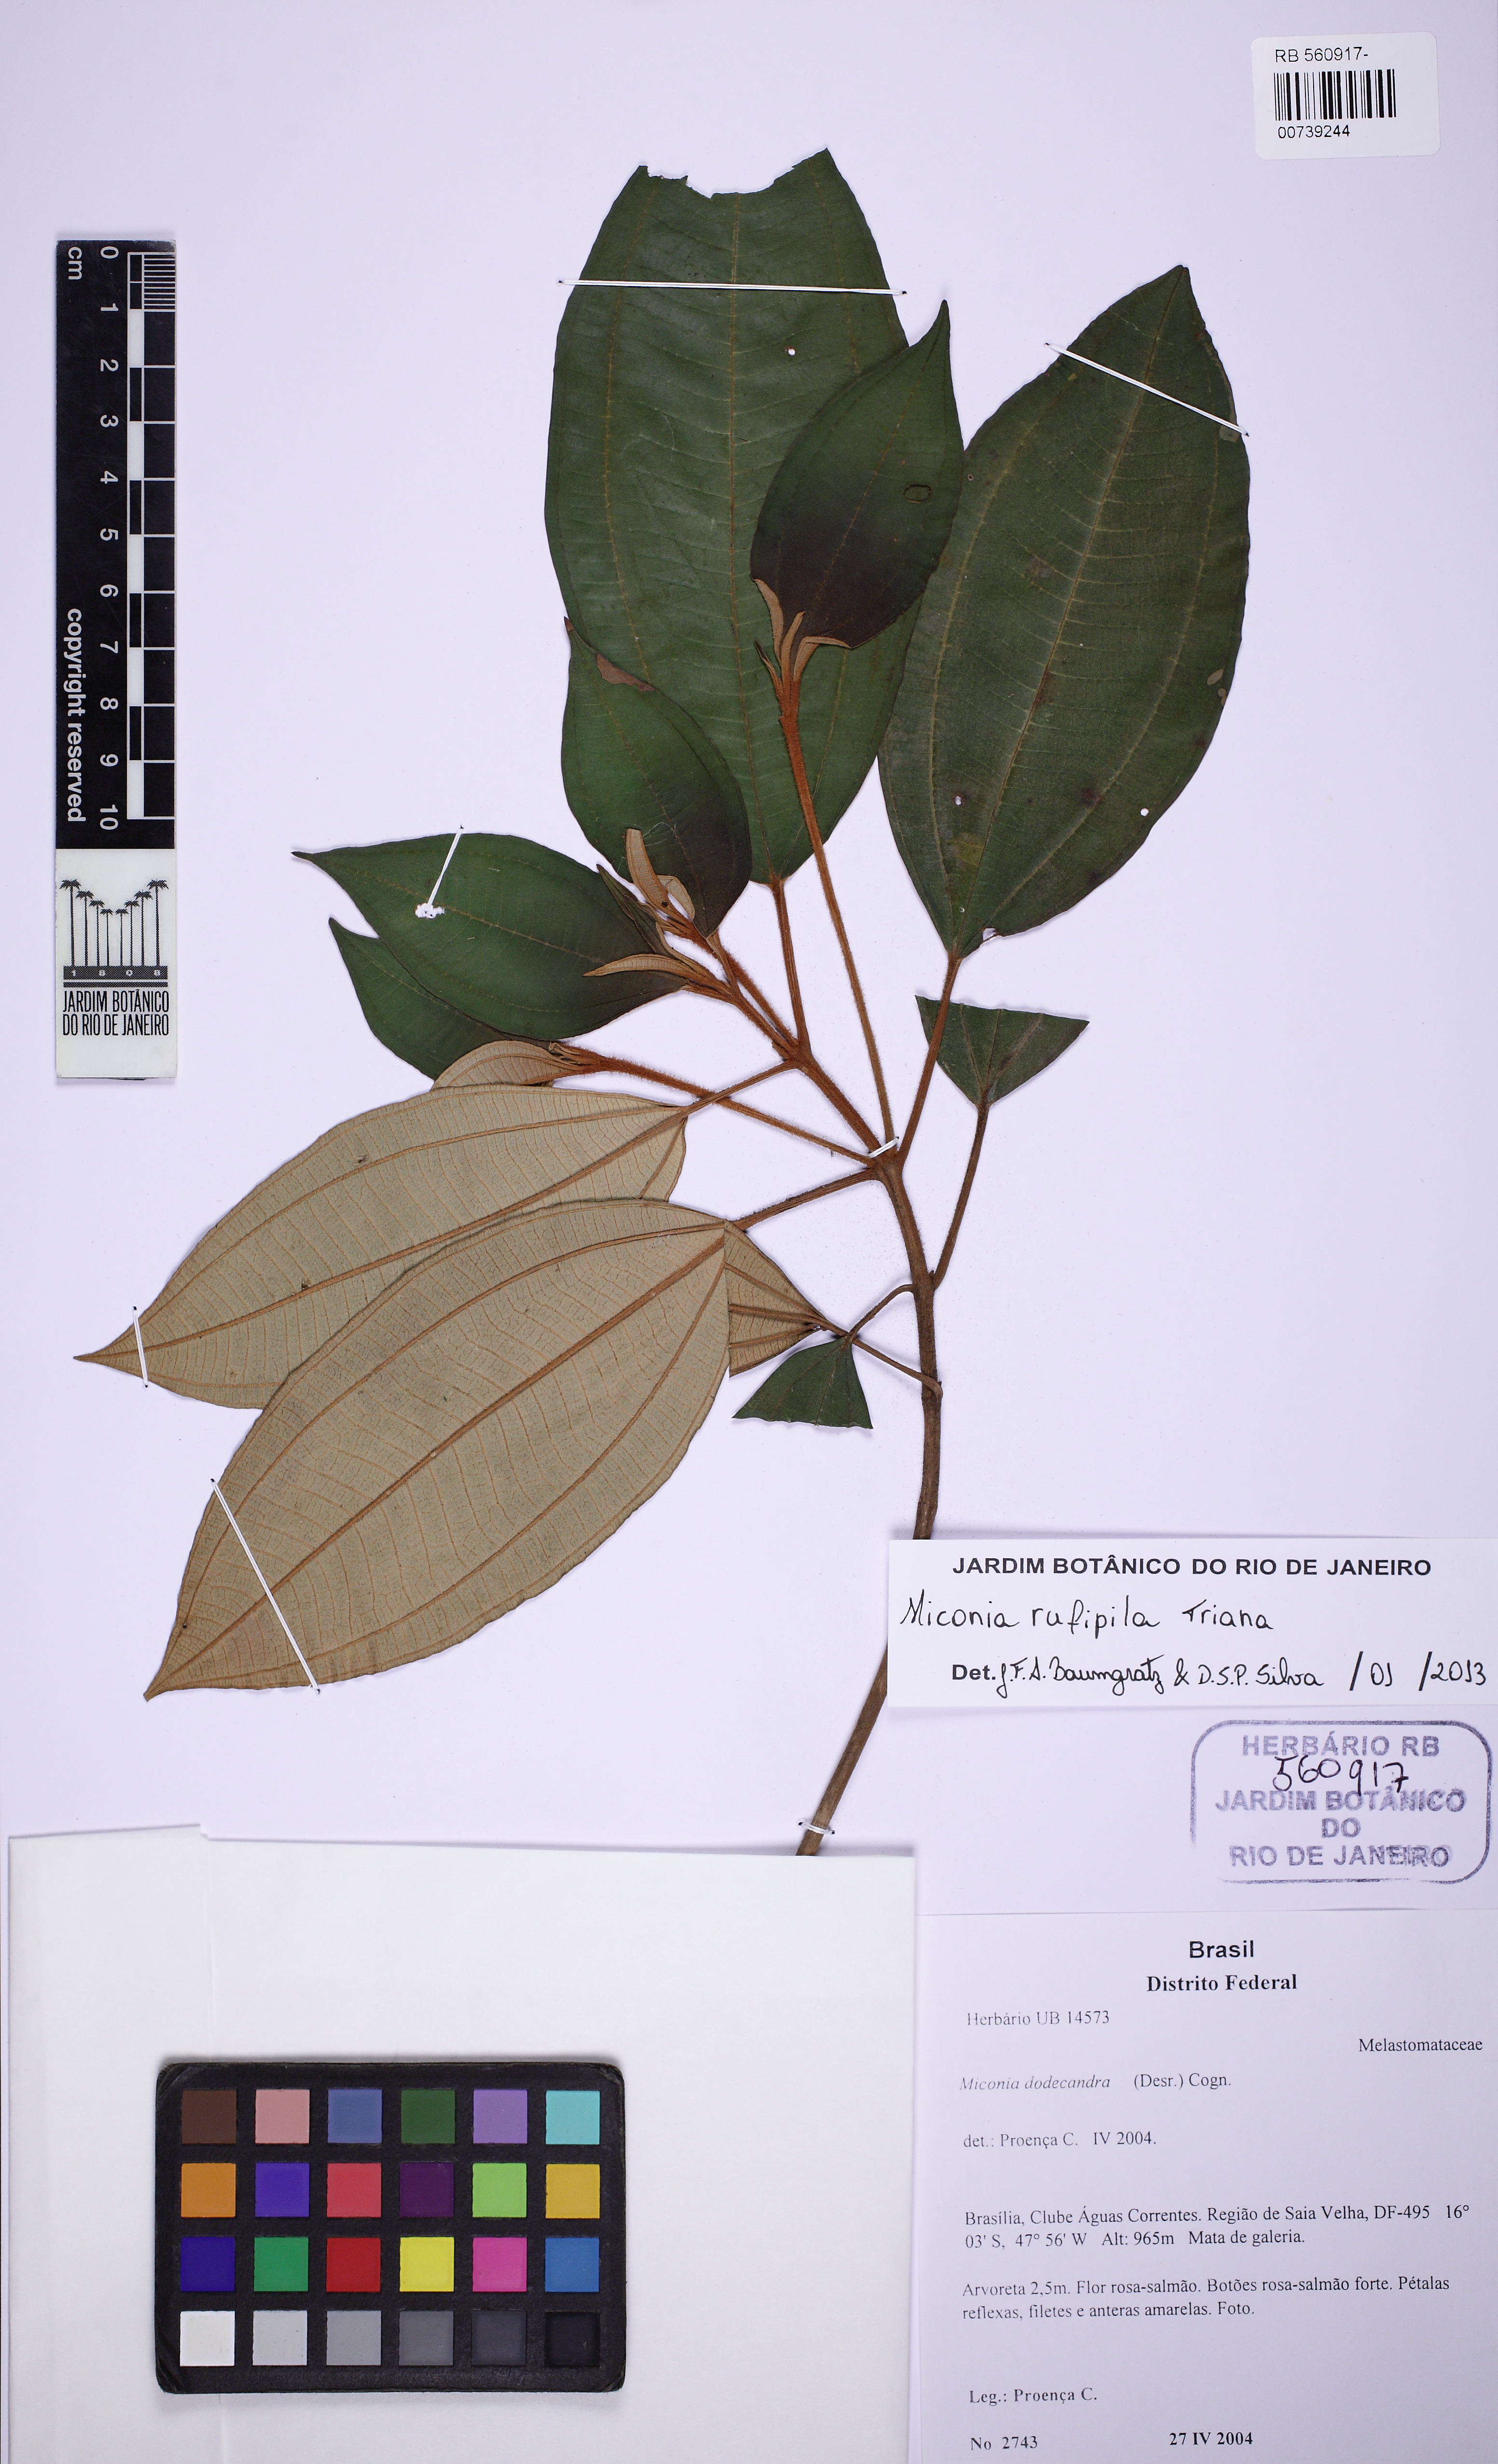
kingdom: Plantae
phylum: Tracheophyta
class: Magnoliopsida
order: Myrtales
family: Melastomataceae
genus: Miconia
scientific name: Miconia rufipila
